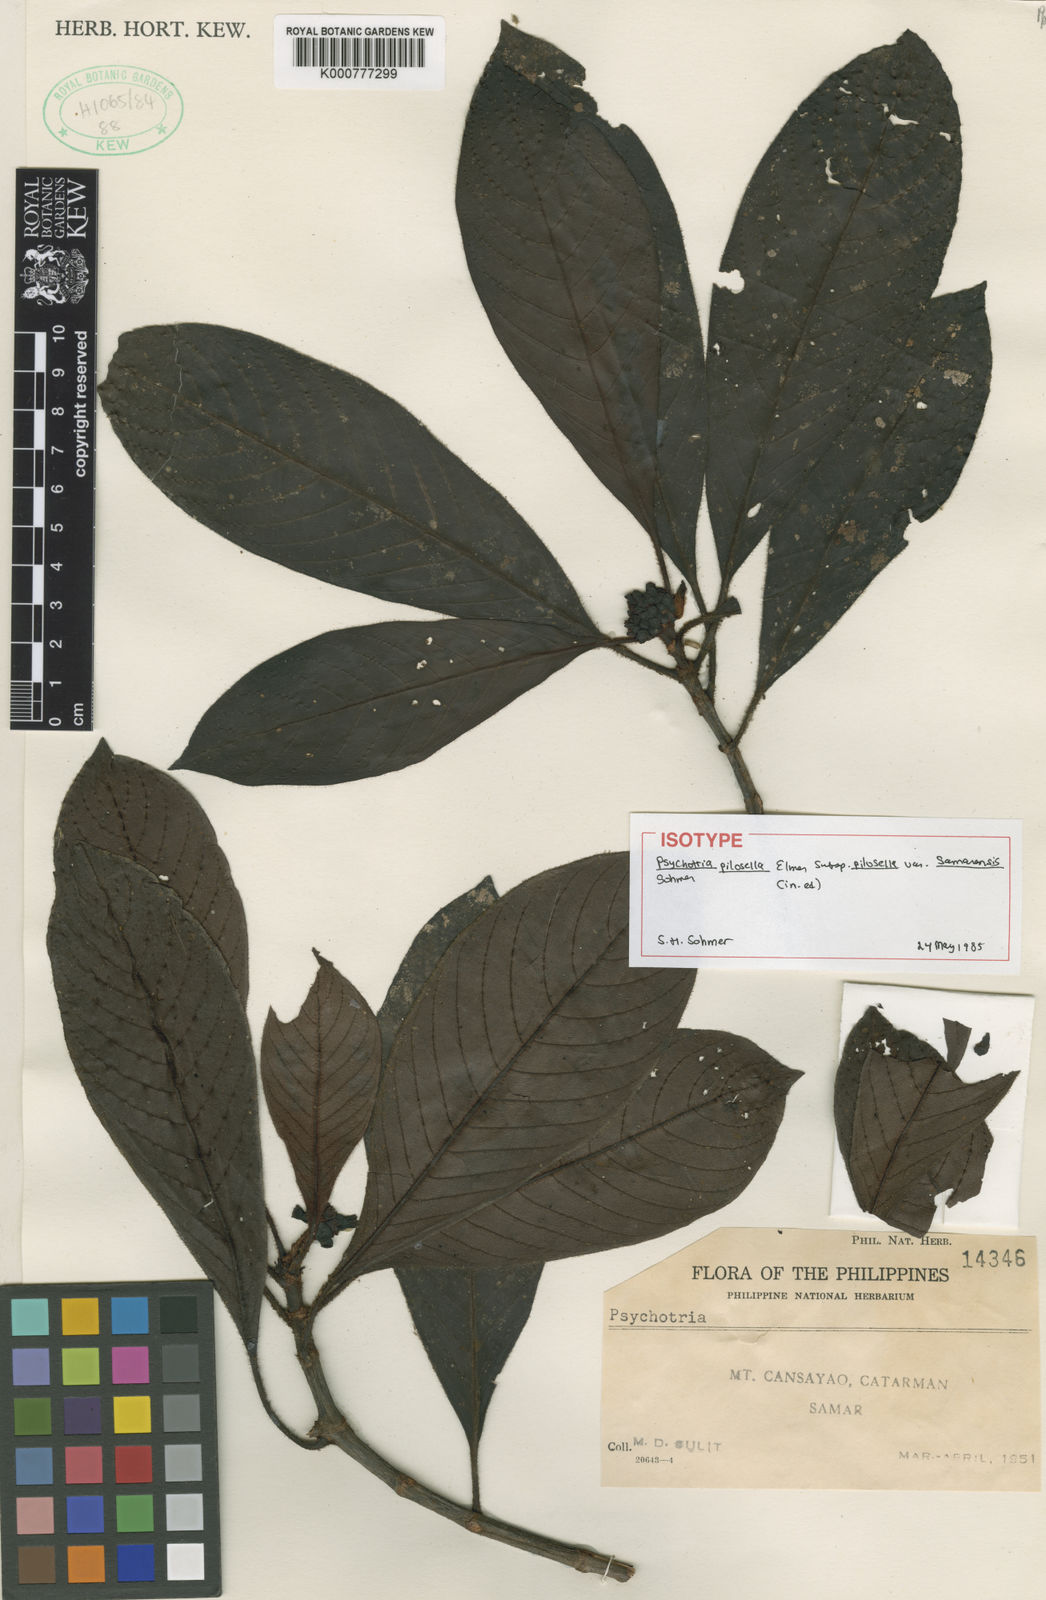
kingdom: Plantae
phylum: Tracheophyta
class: Magnoliopsida
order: Gentianales
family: Rubiaceae
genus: Psychotria
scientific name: Psychotria pilosella
